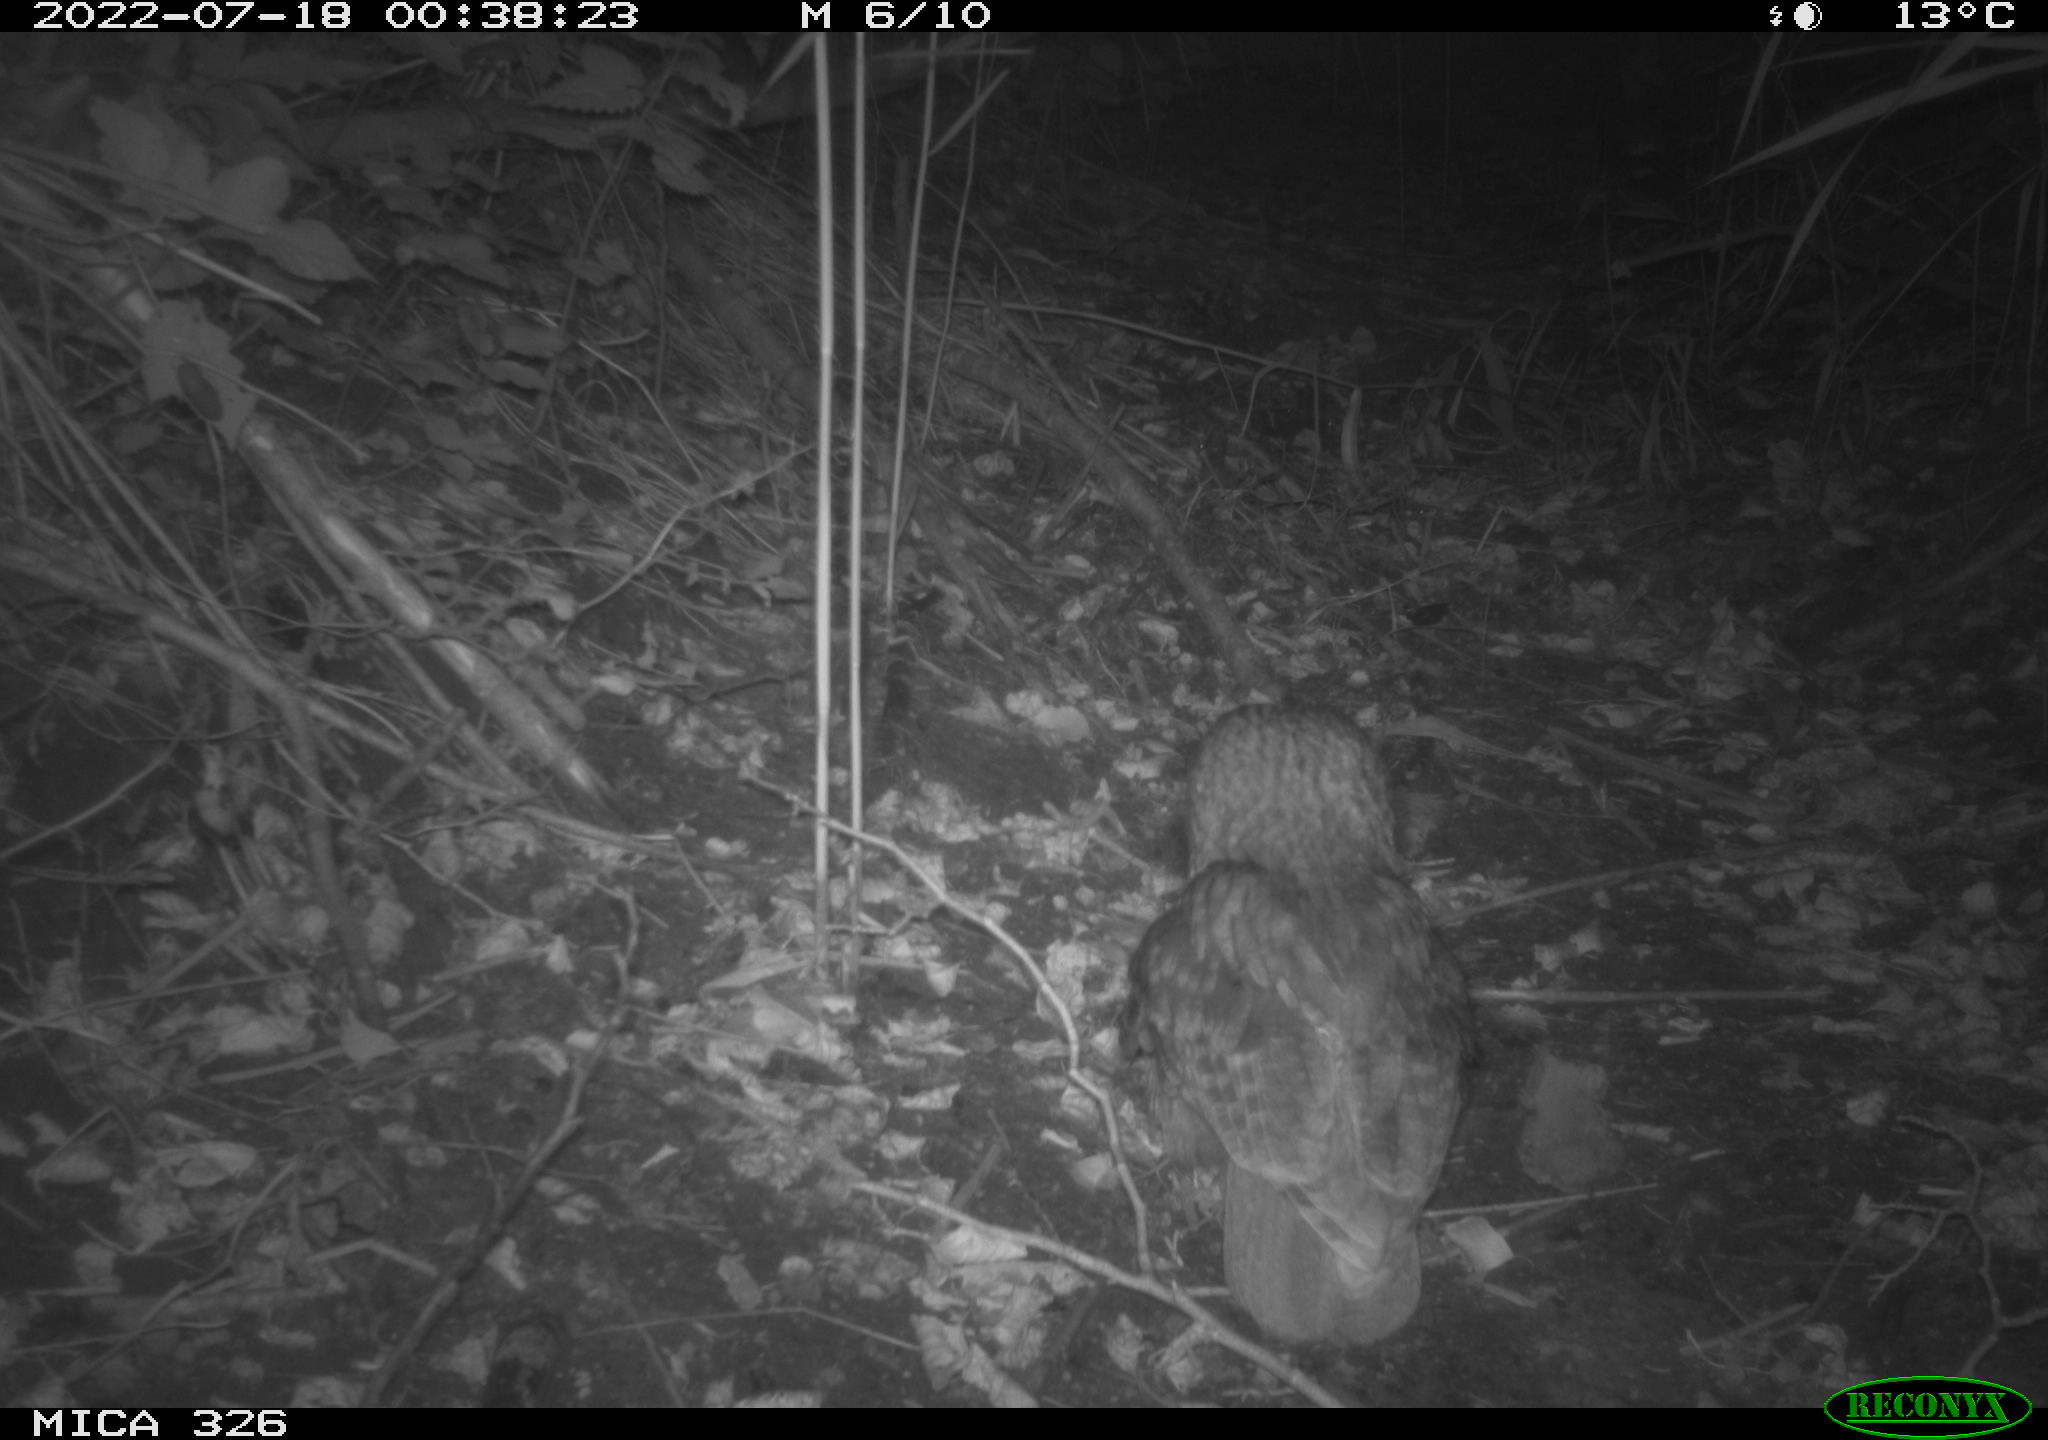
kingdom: Animalia
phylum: Chordata
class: Aves
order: Strigiformes
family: Strigidae
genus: Strix
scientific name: Strix aluco
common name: Tawny owl
